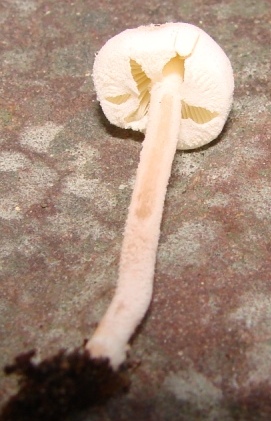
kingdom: Fungi
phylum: Basidiomycota
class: Agaricomycetes
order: Agaricales
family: Agaricaceae
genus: Cystolepiota
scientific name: Cystolepiota seminuda
